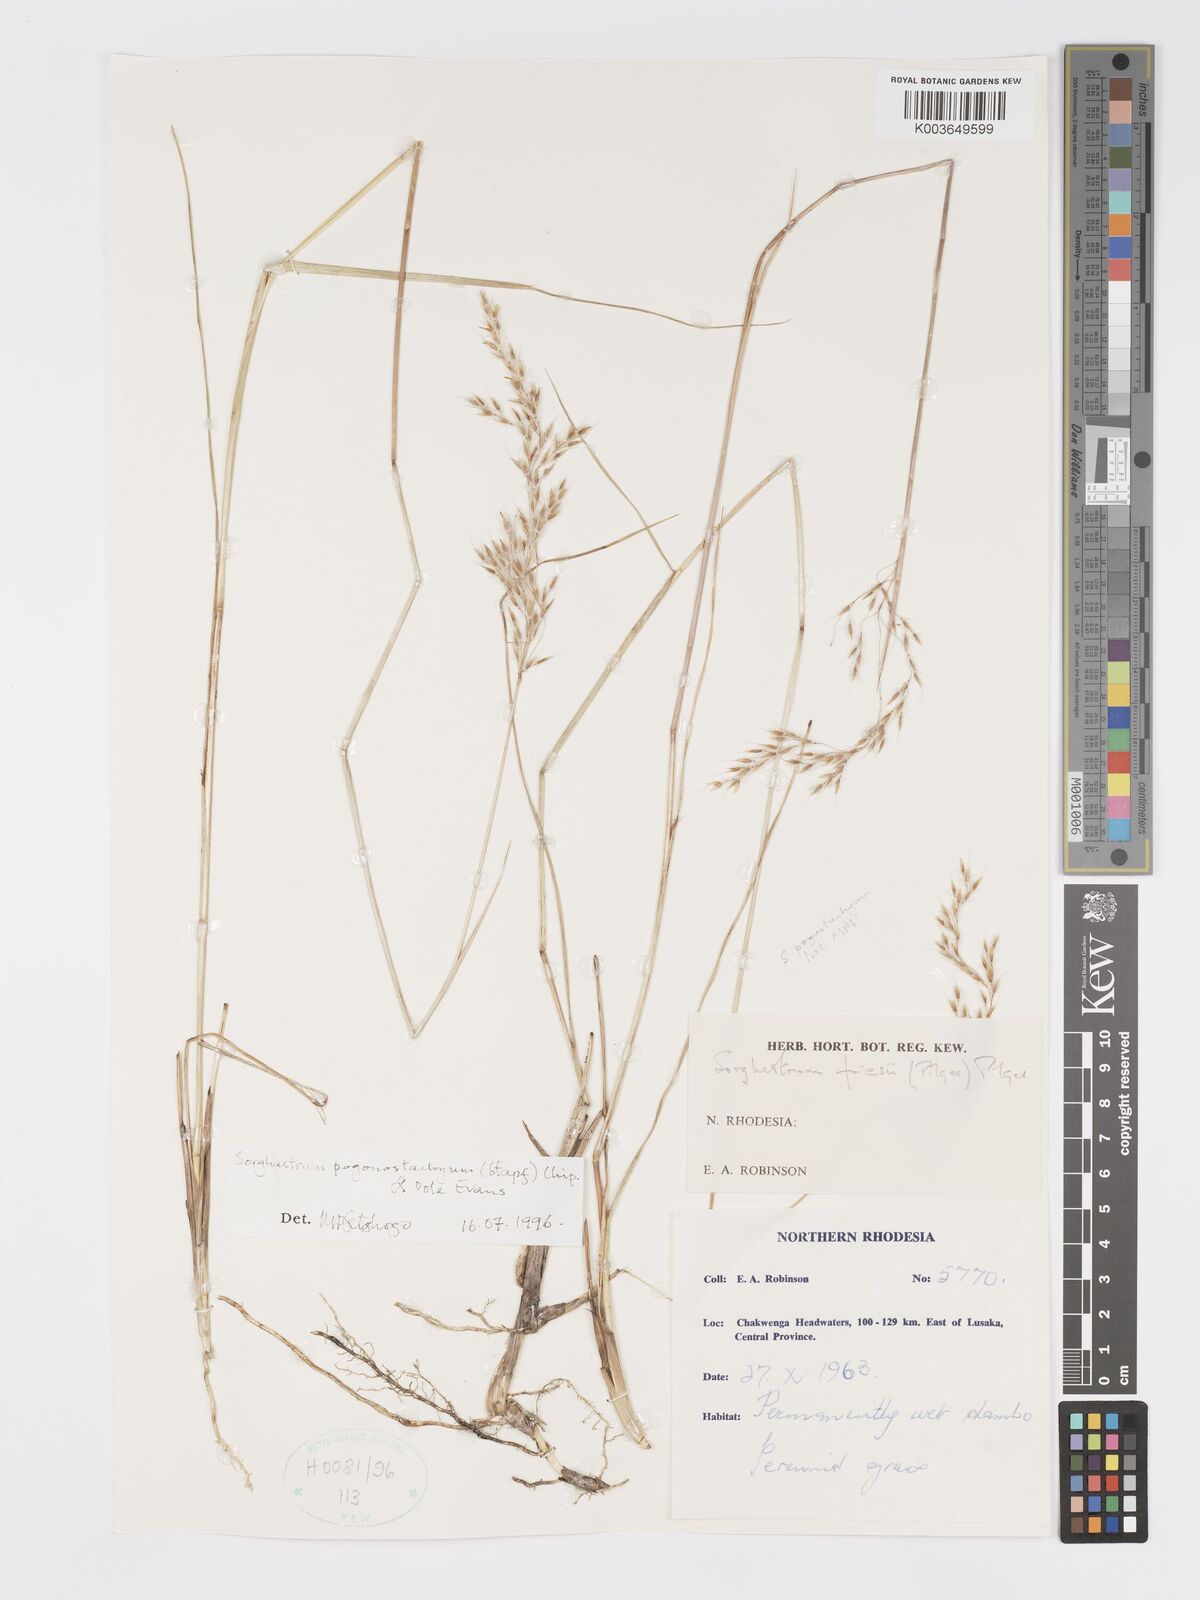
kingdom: Plantae
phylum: Tracheophyta
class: Liliopsida
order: Poales
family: Poaceae
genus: Sorghastrum
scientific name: Sorghastrum pogonostachyum
